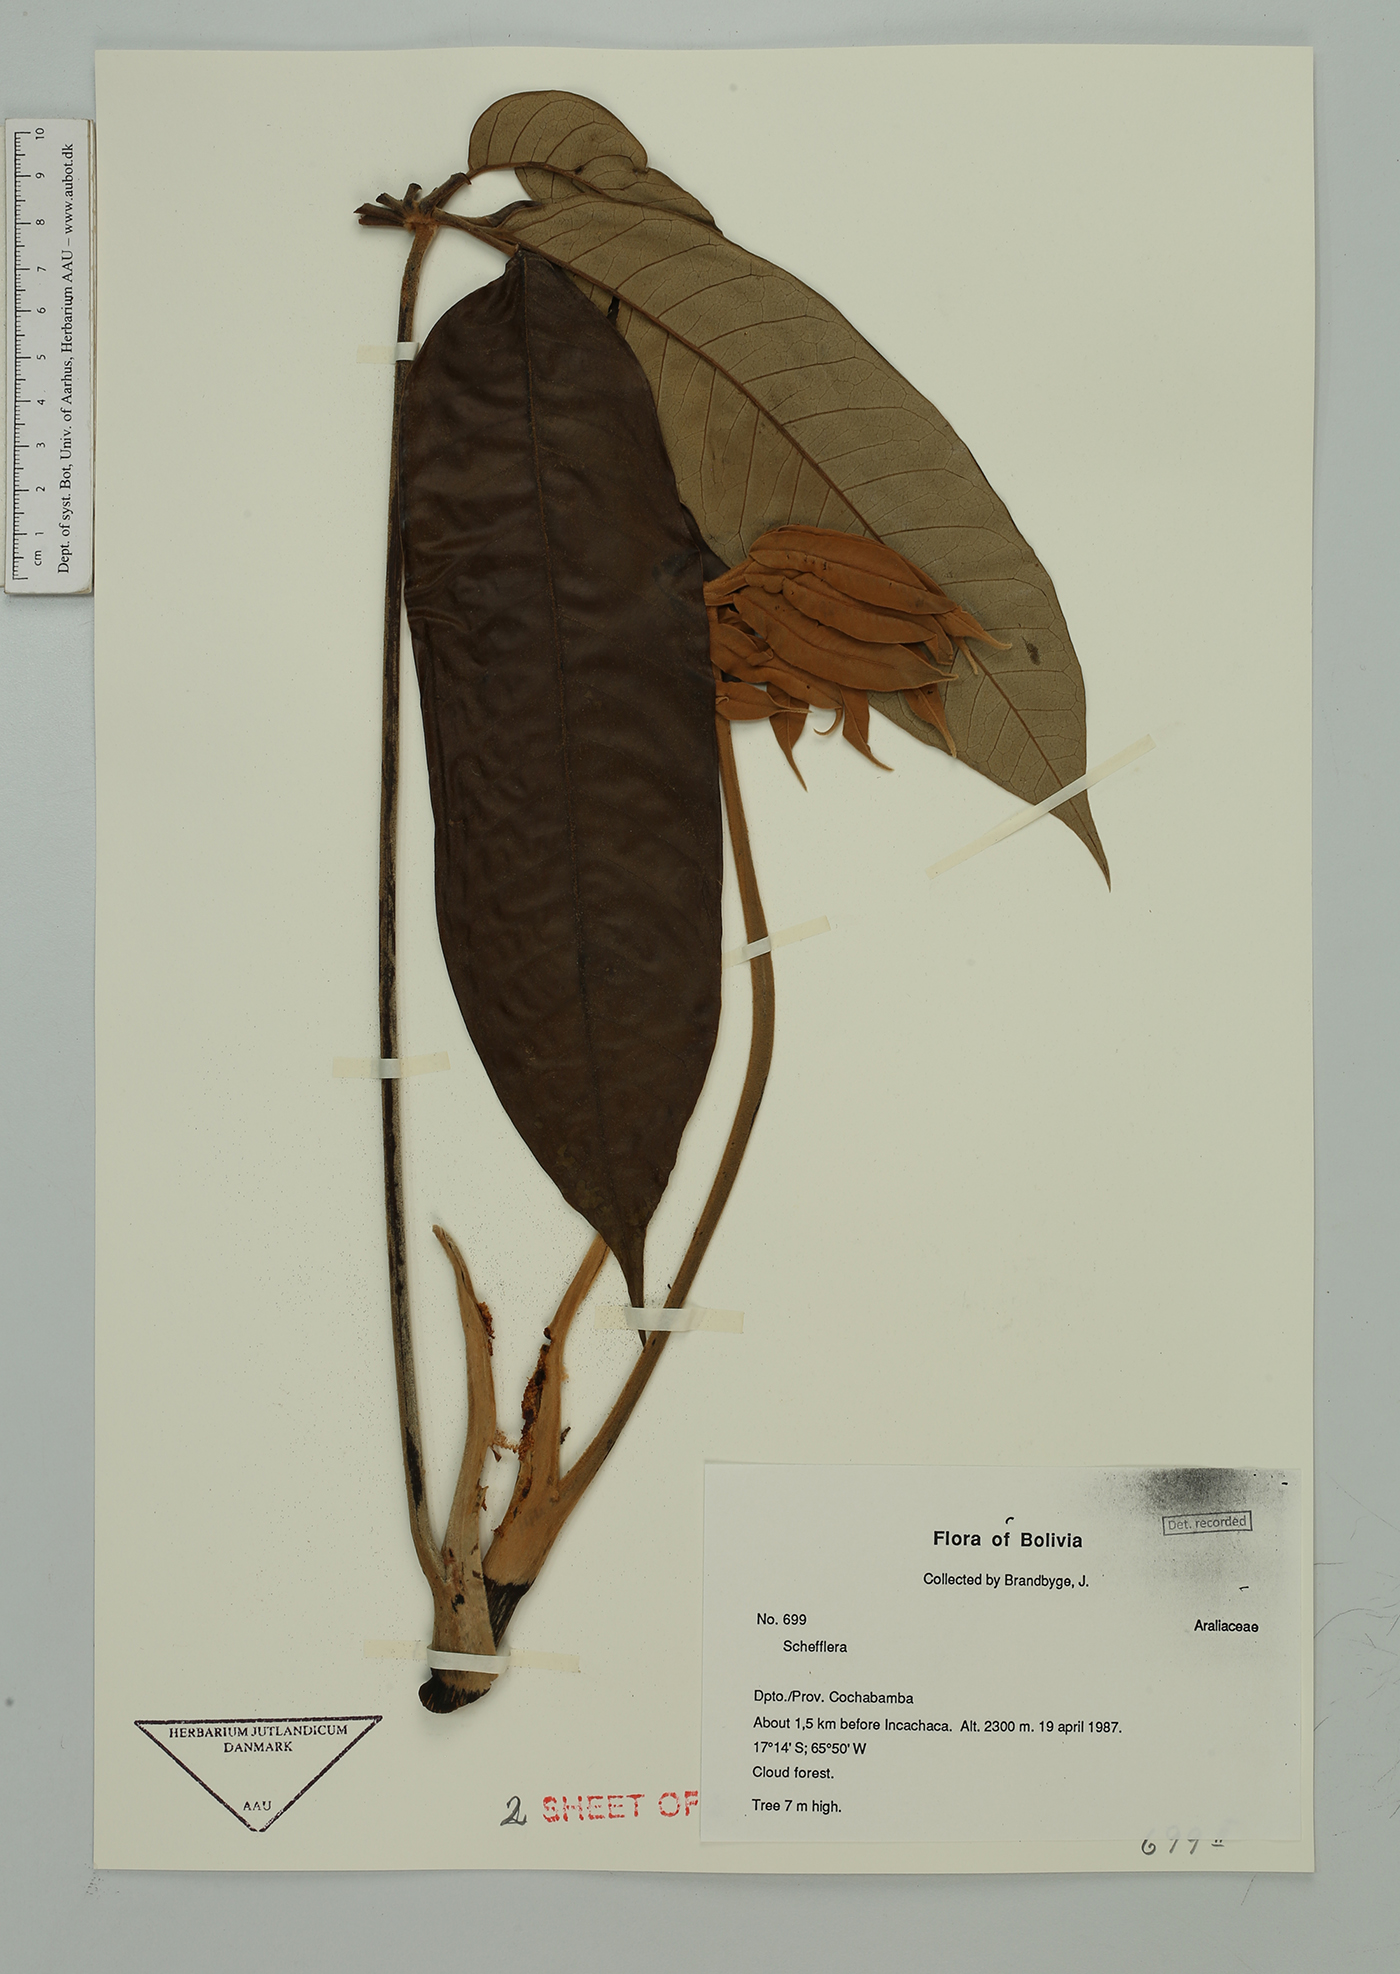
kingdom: Plantae
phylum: Tracheophyta
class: Magnoliopsida
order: Apiales
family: Araliaceae
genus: Sciodaphyllum
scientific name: Sciodaphyllum herzogii
